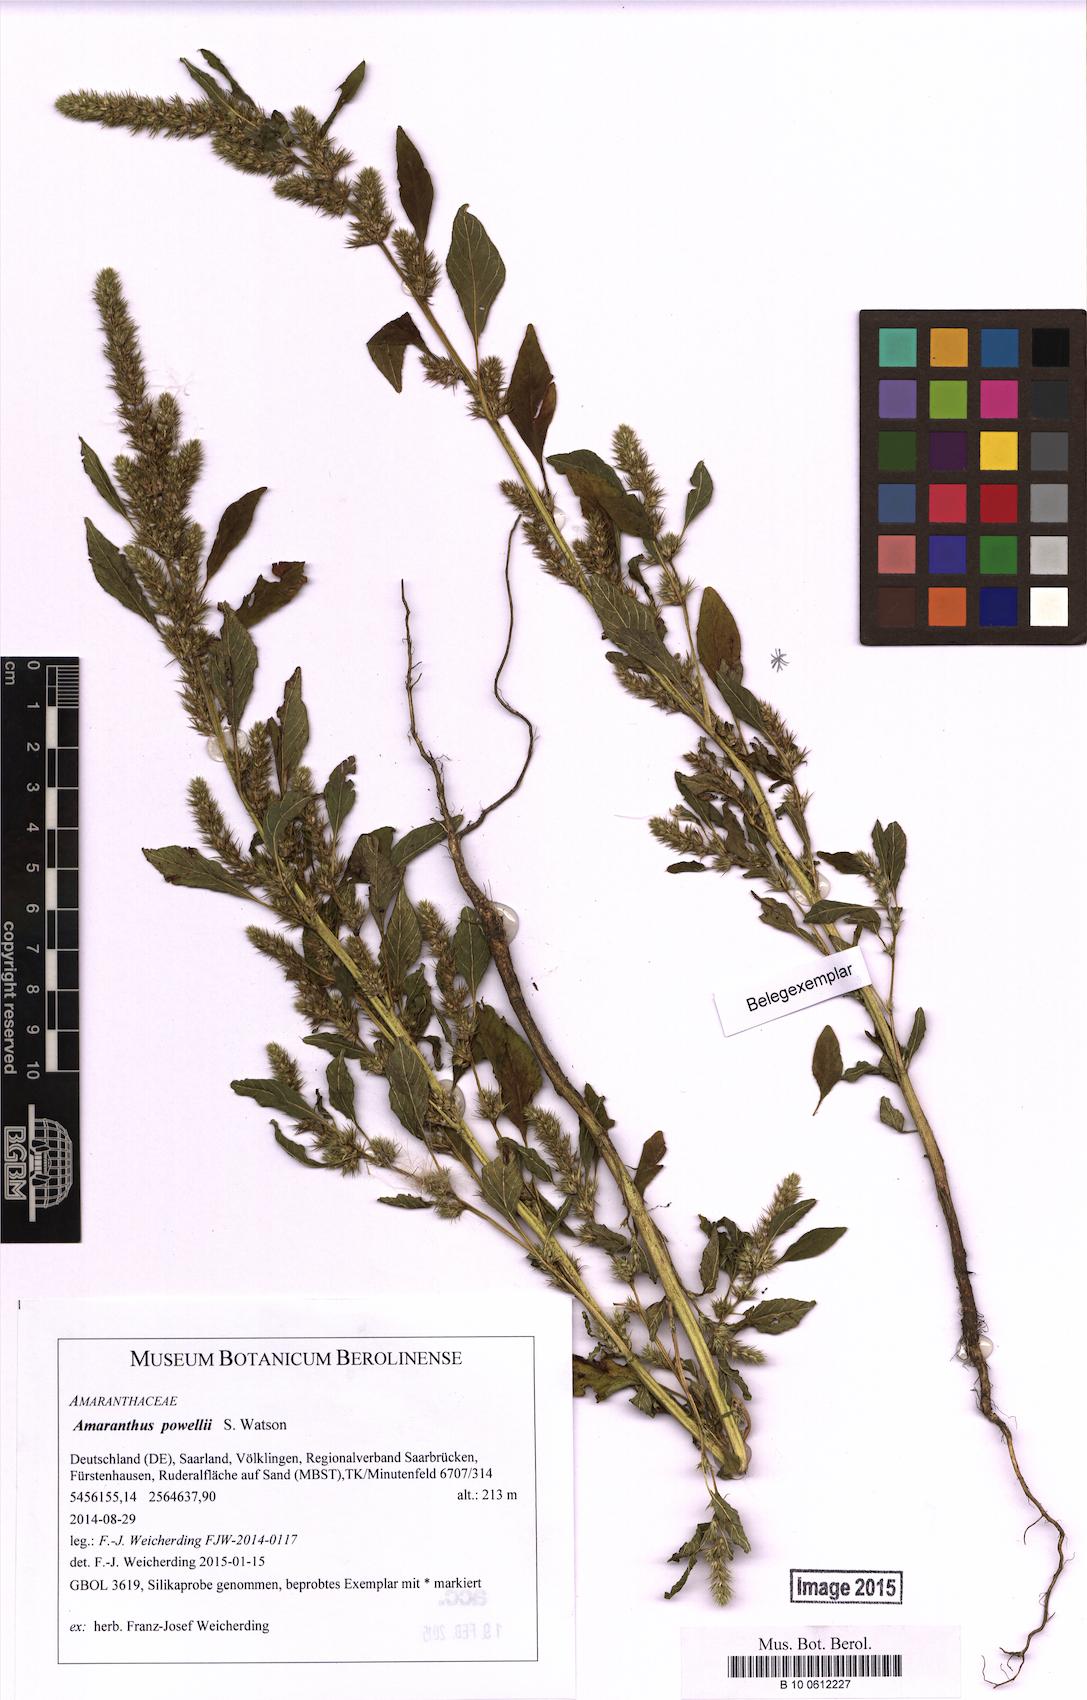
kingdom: Plantae
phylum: Tracheophyta
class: Magnoliopsida
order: Caryophyllales
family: Amaranthaceae
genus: Amaranthus
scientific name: Amaranthus powellii
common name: Powell's amaranth
